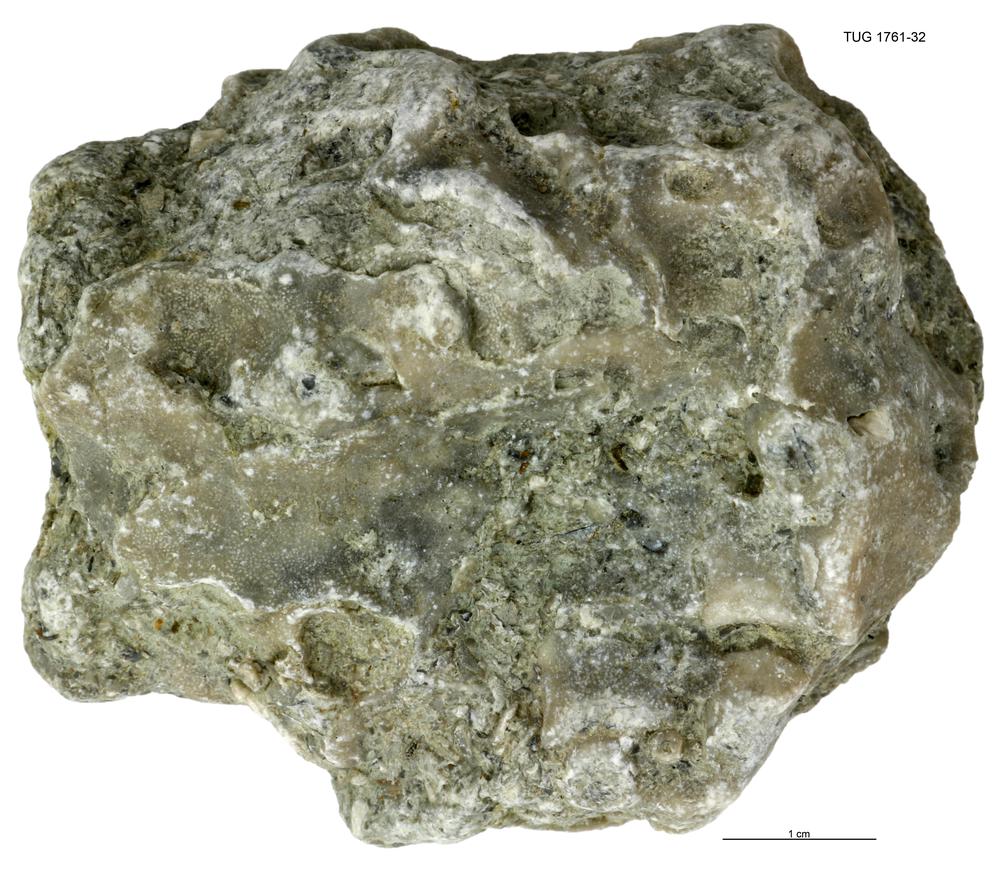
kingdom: Animalia
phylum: Bryozoa
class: Stenolaemata
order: Cystoporida
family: Fistuliporidae
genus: Fistulipora
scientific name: Fistulipora przhidolensis
